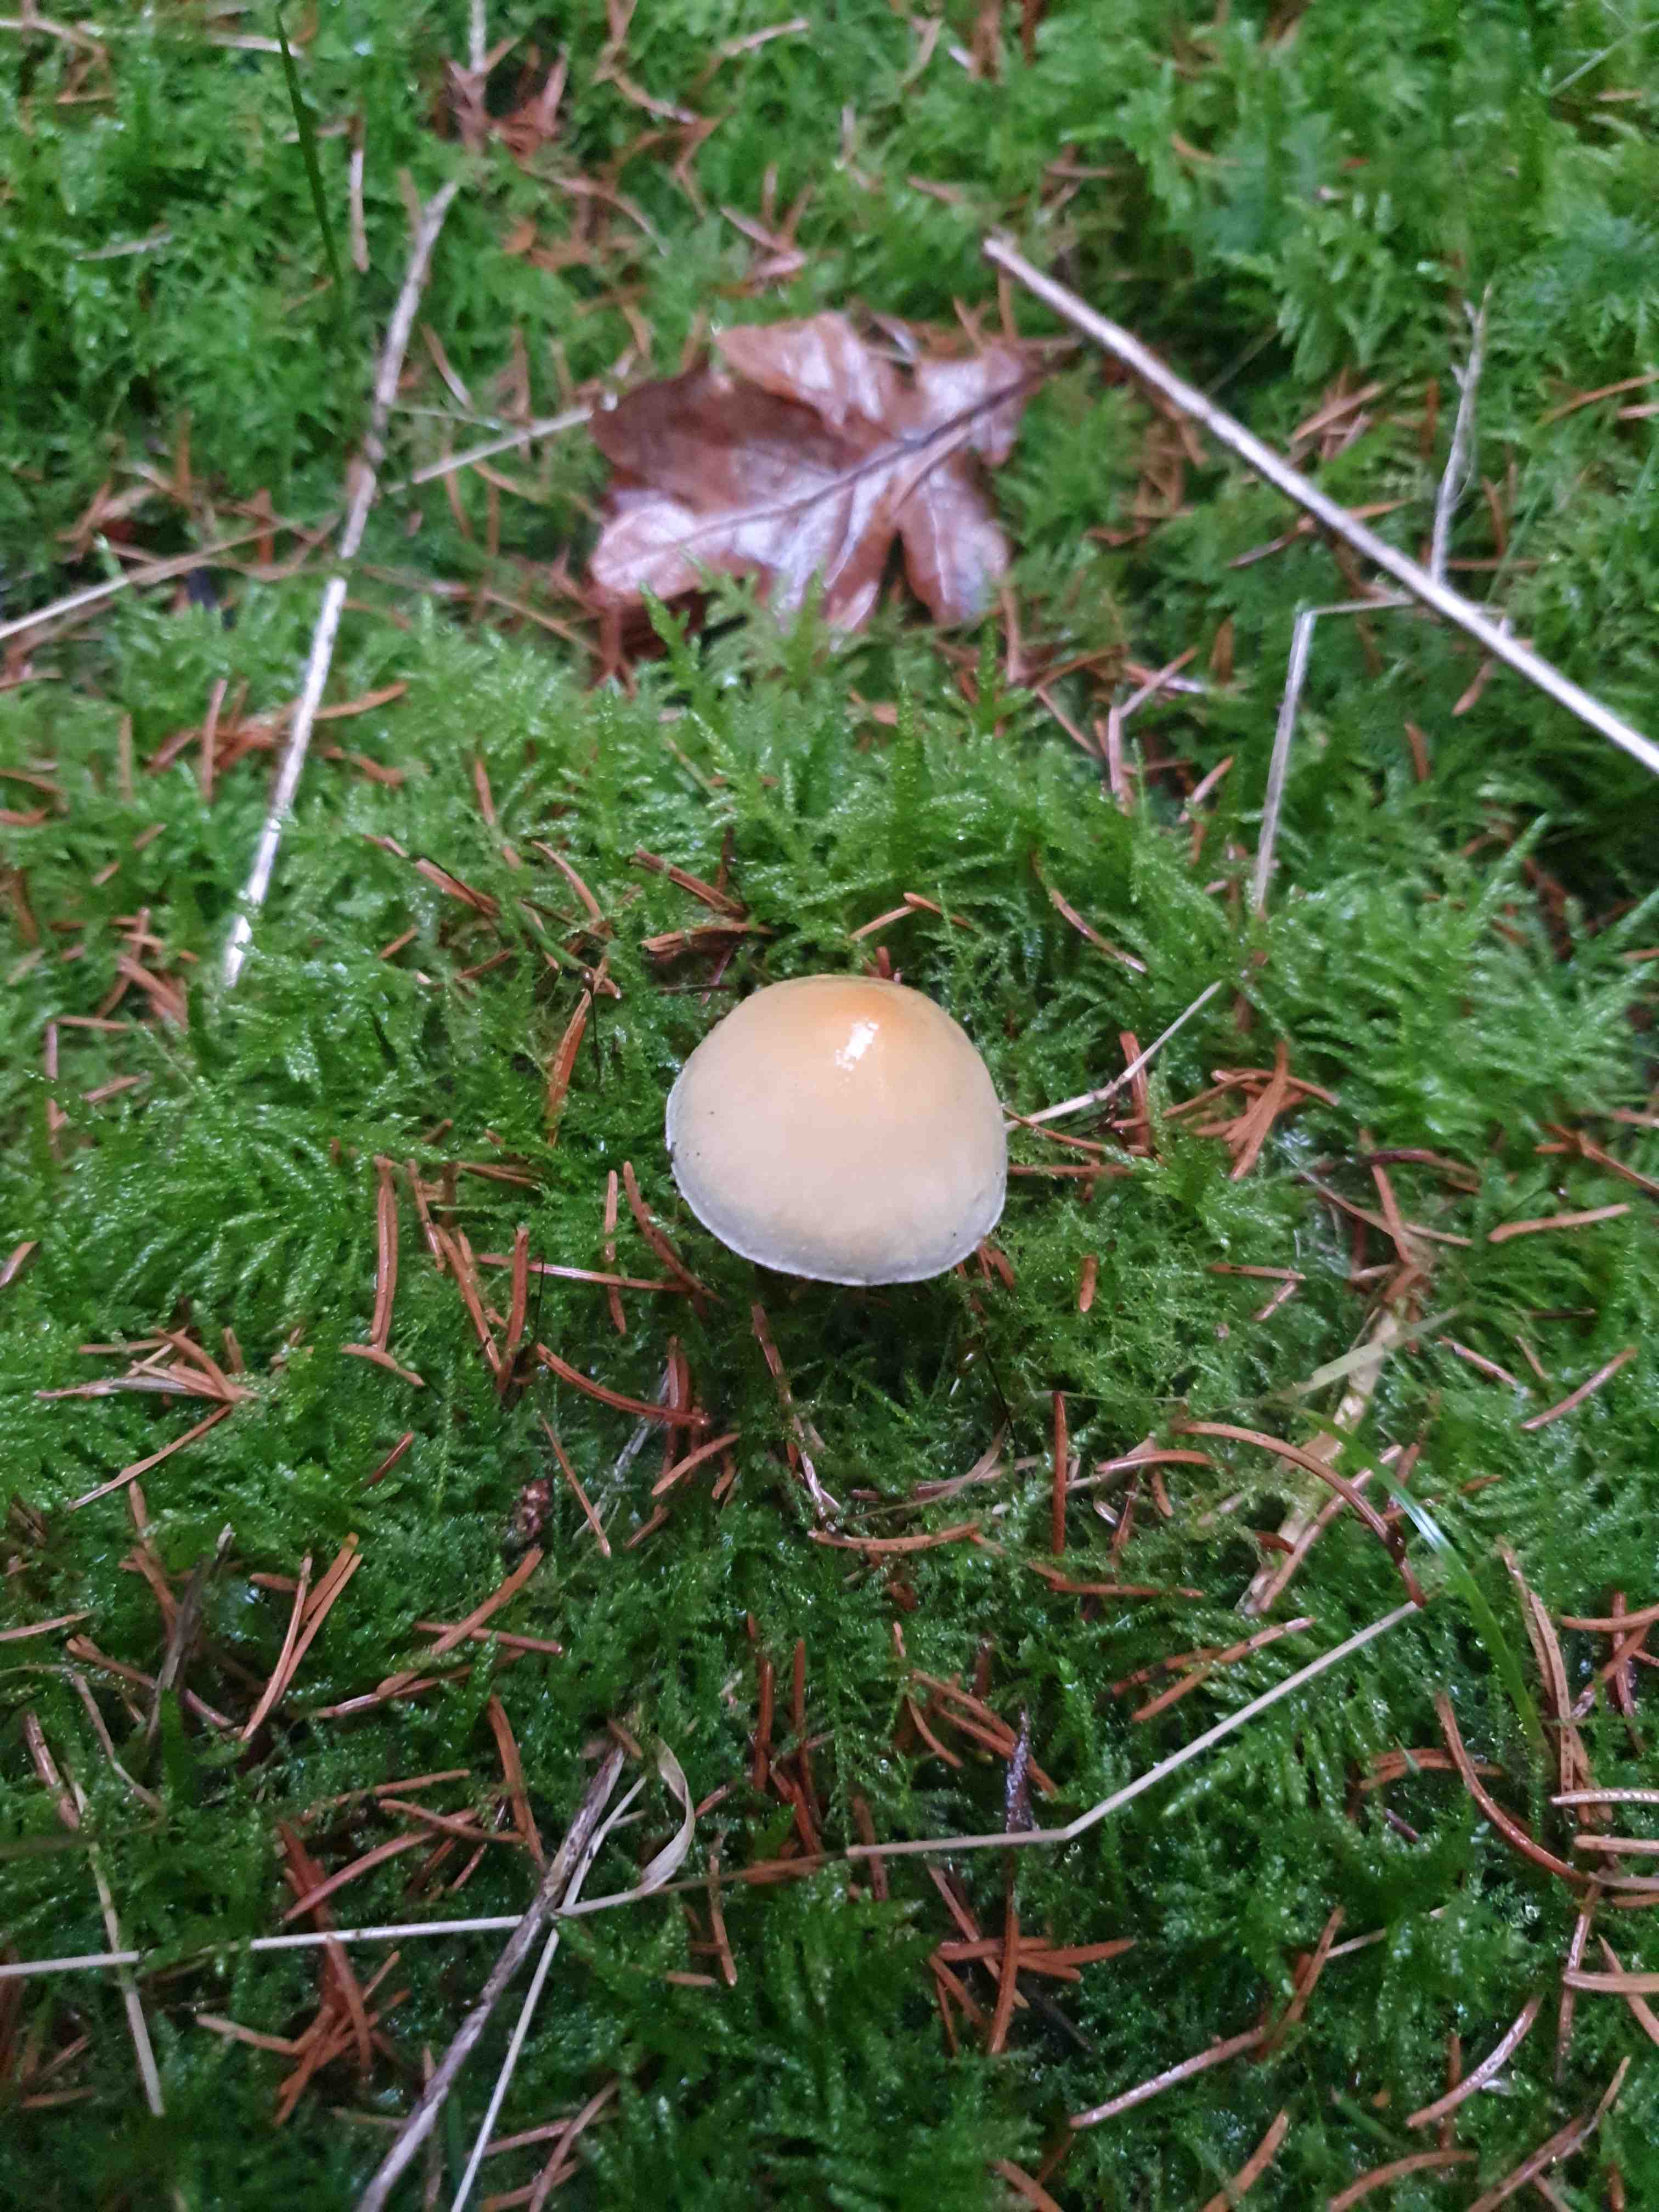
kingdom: Fungi
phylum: Basidiomycota
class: Agaricomycetes
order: Agaricales
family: Strophariaceae
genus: Hypholoma
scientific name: Hypholoma capnoides
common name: gran-svovlhat
